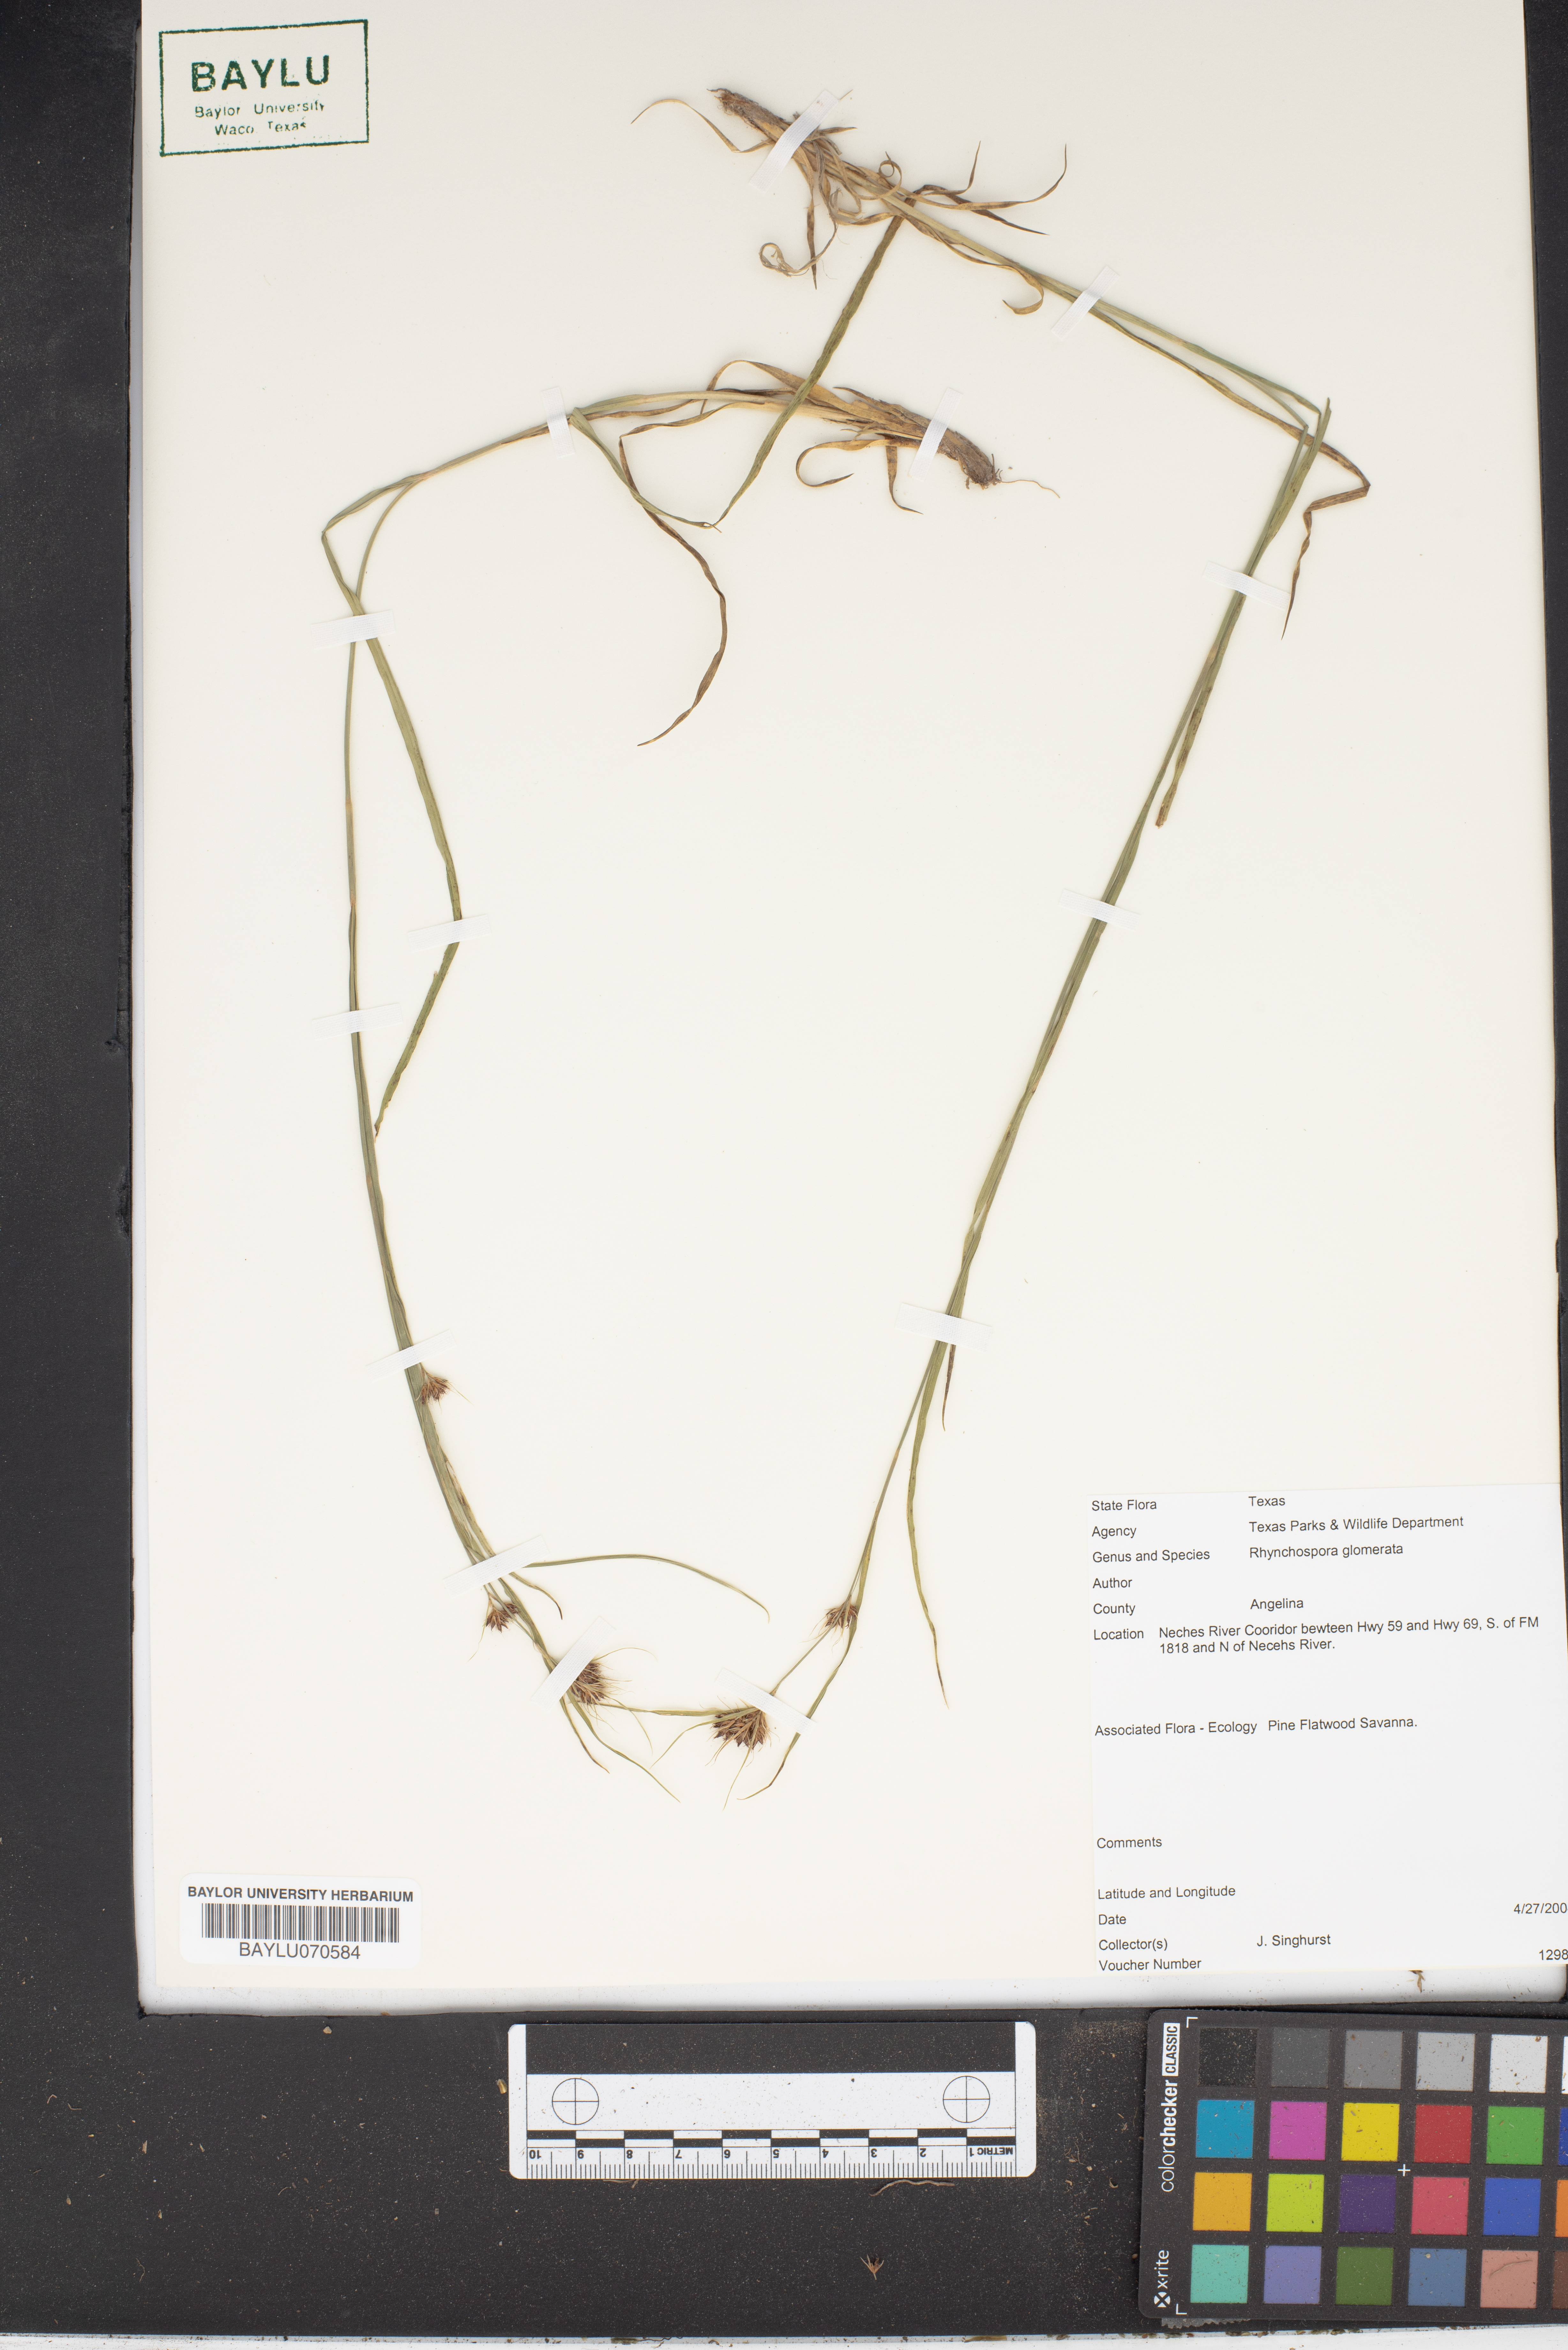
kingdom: Plantae
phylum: Tracheophyta
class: Liliopsida
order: Poales
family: Cyperaceae
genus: Rhynchospora
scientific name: Rhynchospora glomerata
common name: Cluster beak sedge
